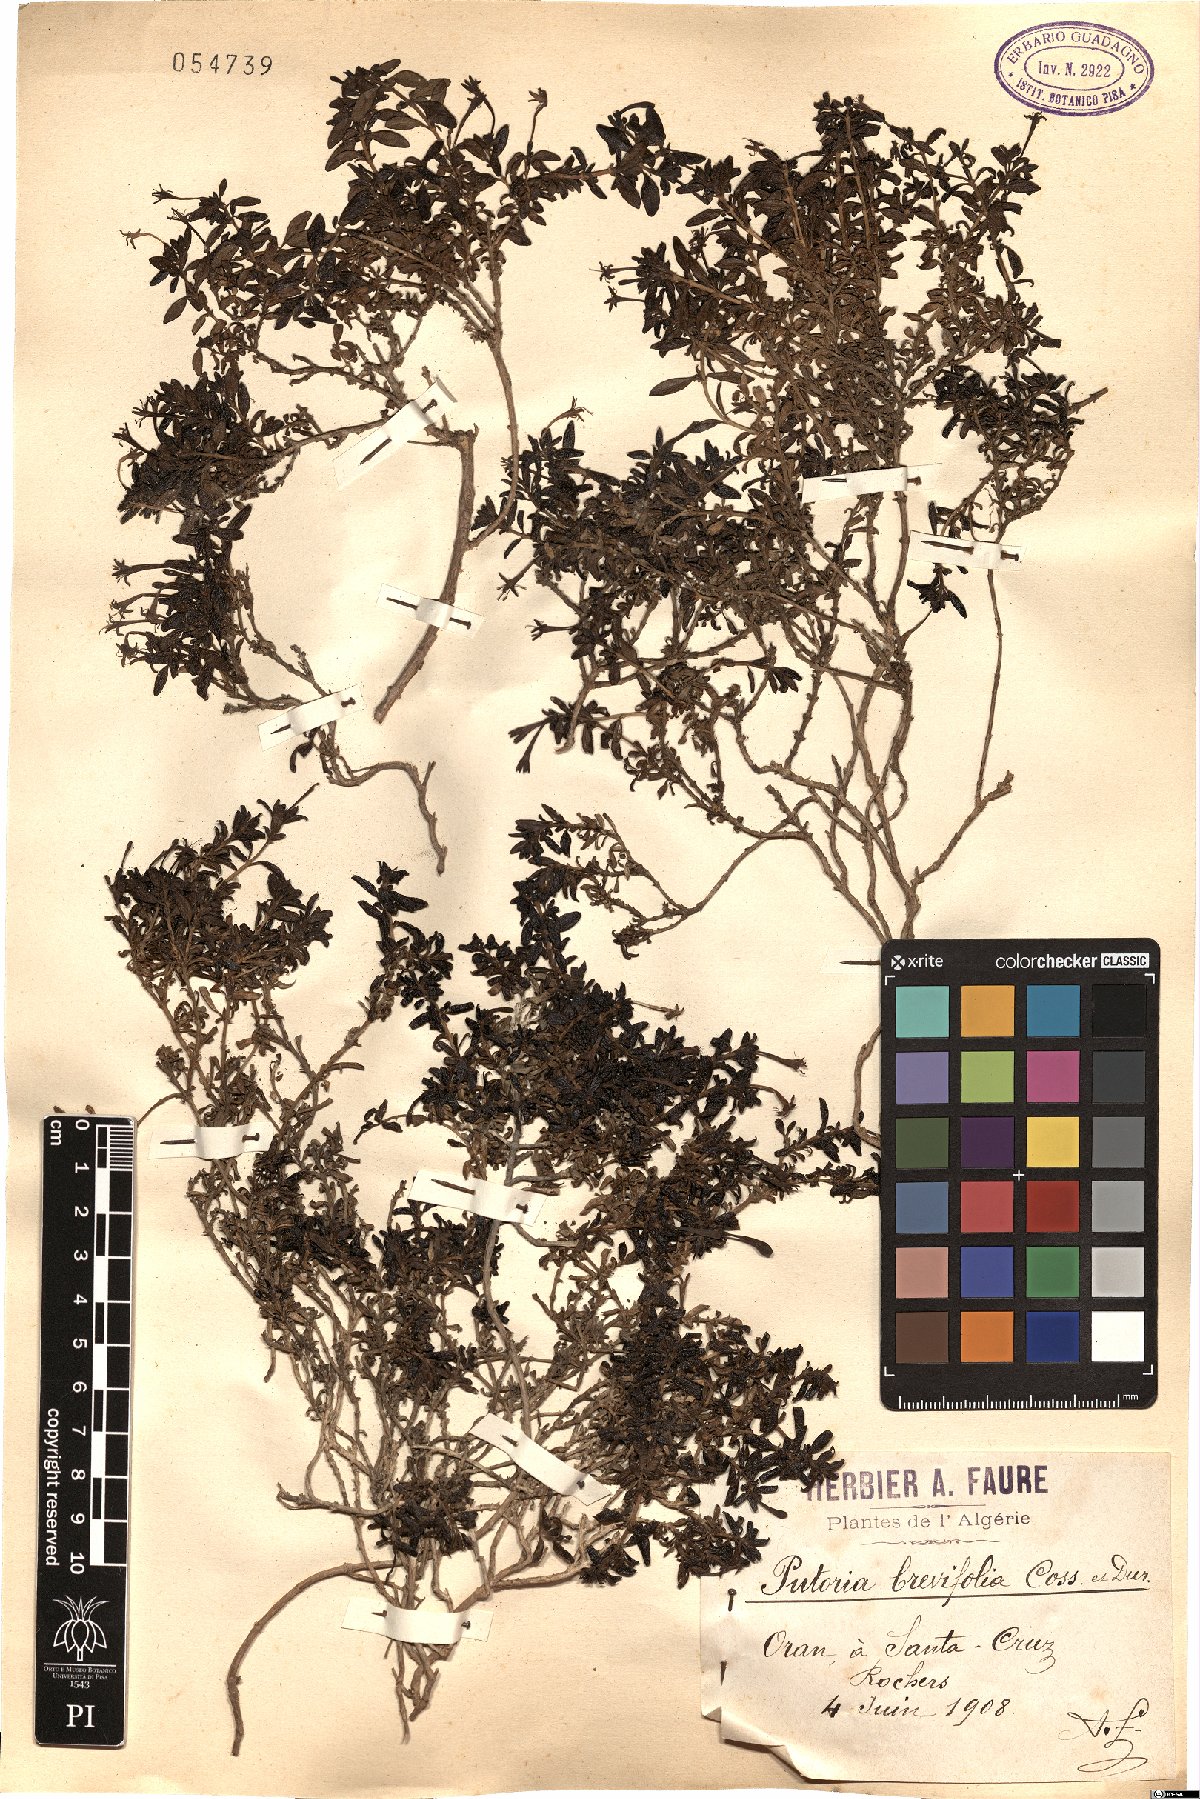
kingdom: Plantae
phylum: Tracheophyta
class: Magnoliopsida
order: Gentianales
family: Rubiaceae
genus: Plocama
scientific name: Plocama brevifolia
